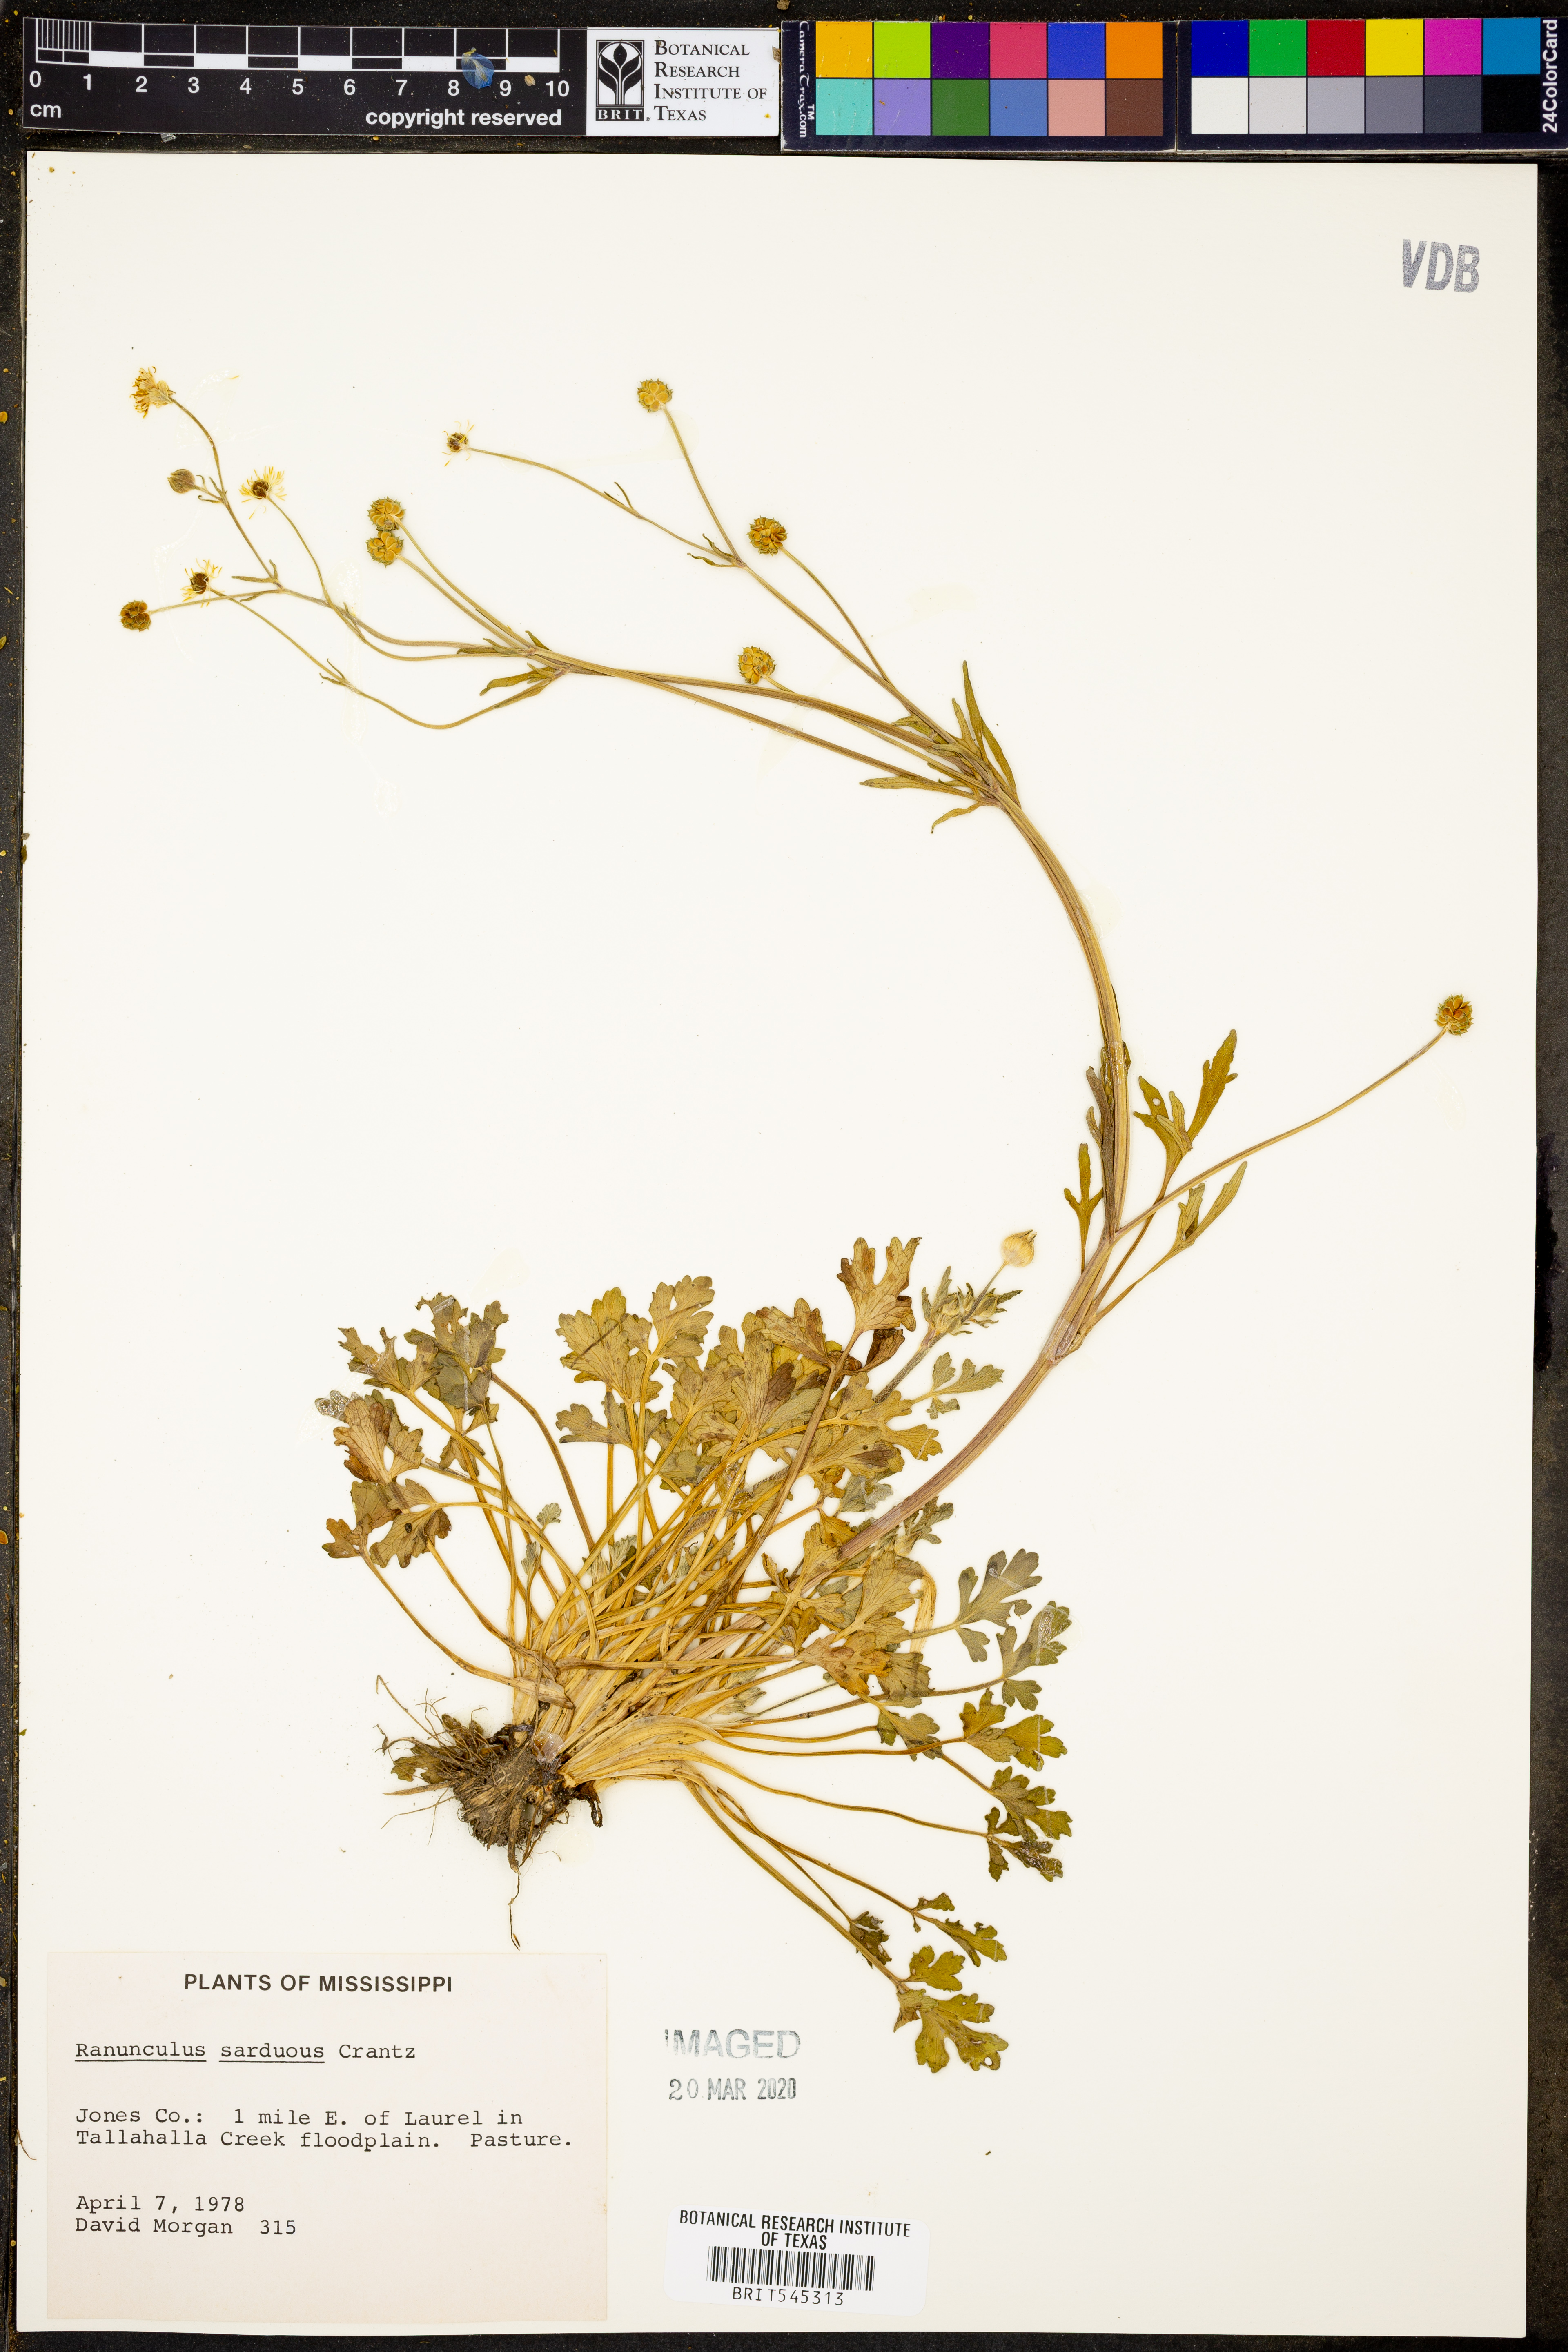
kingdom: Plantae
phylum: Tracheophyta
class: Magnoliopsida
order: Ranunculales
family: Ranunculaceae
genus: Ranunculus
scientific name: Ranunculus sardous
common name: Hairy buttercup
